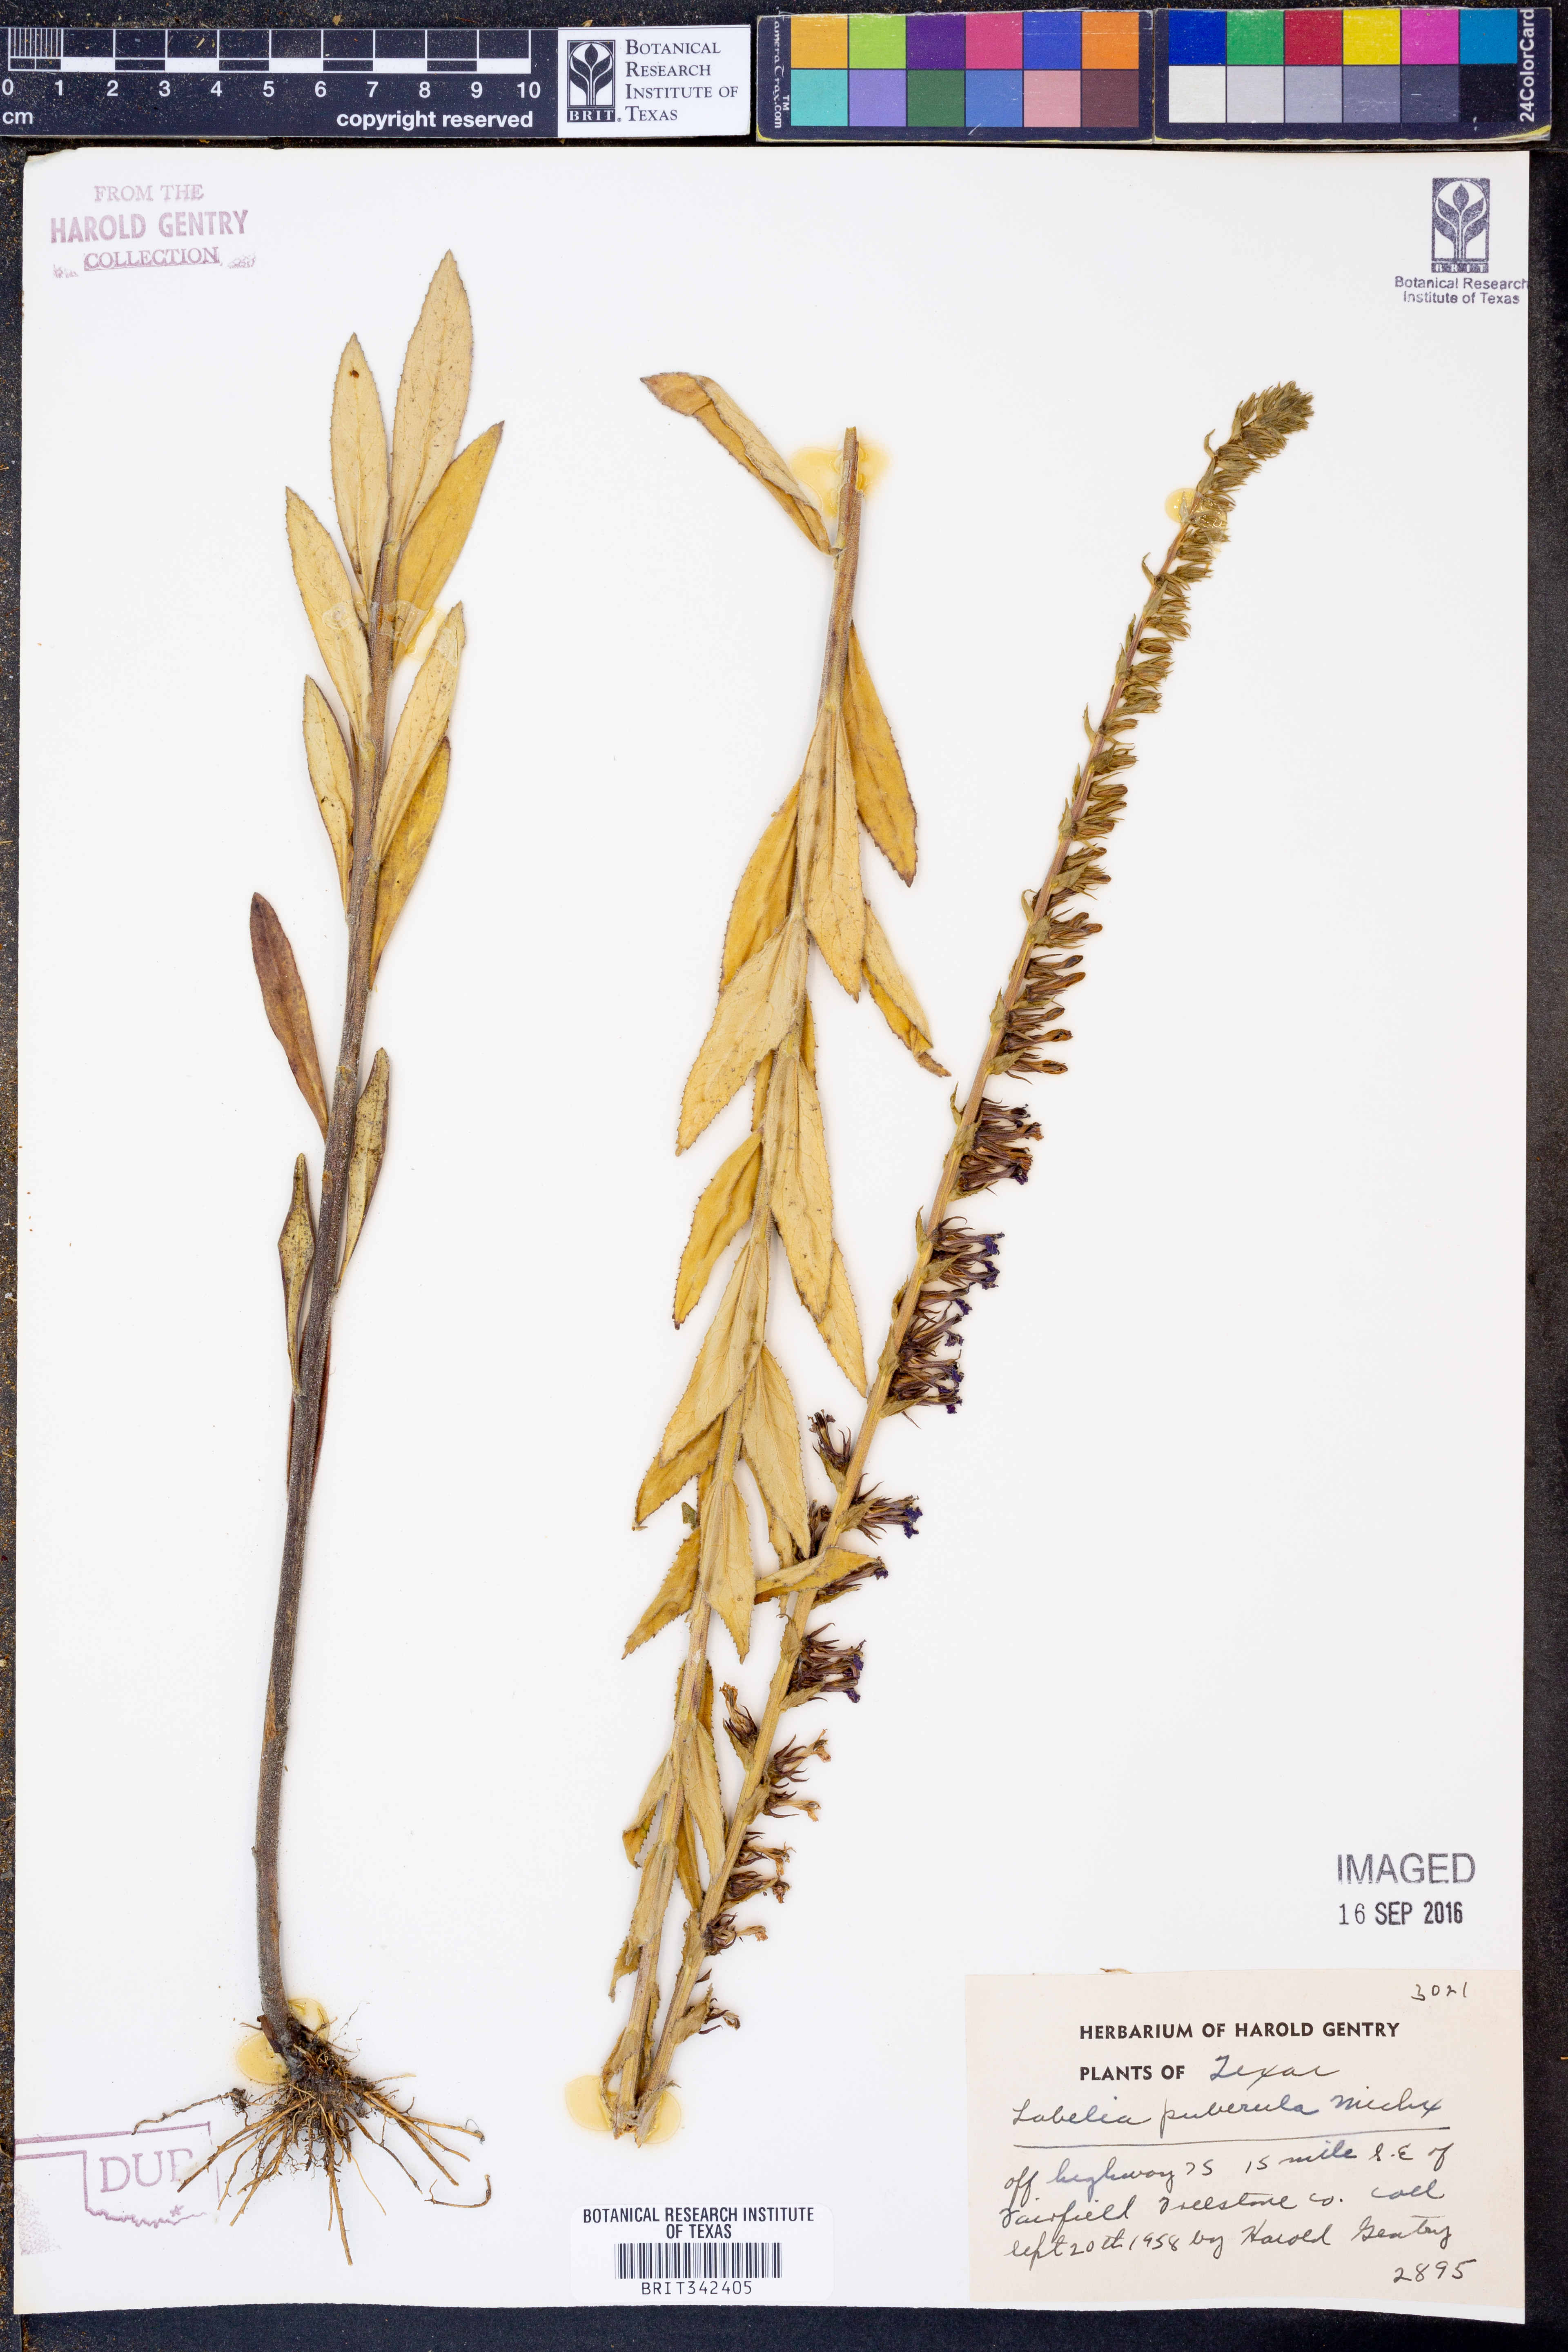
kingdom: Plantae
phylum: Tracheophyta
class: Magnoliopsida
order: Asterales
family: Campanulaceae
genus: Lobelia
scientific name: Lobelia puberula
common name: Purple dewdrop
